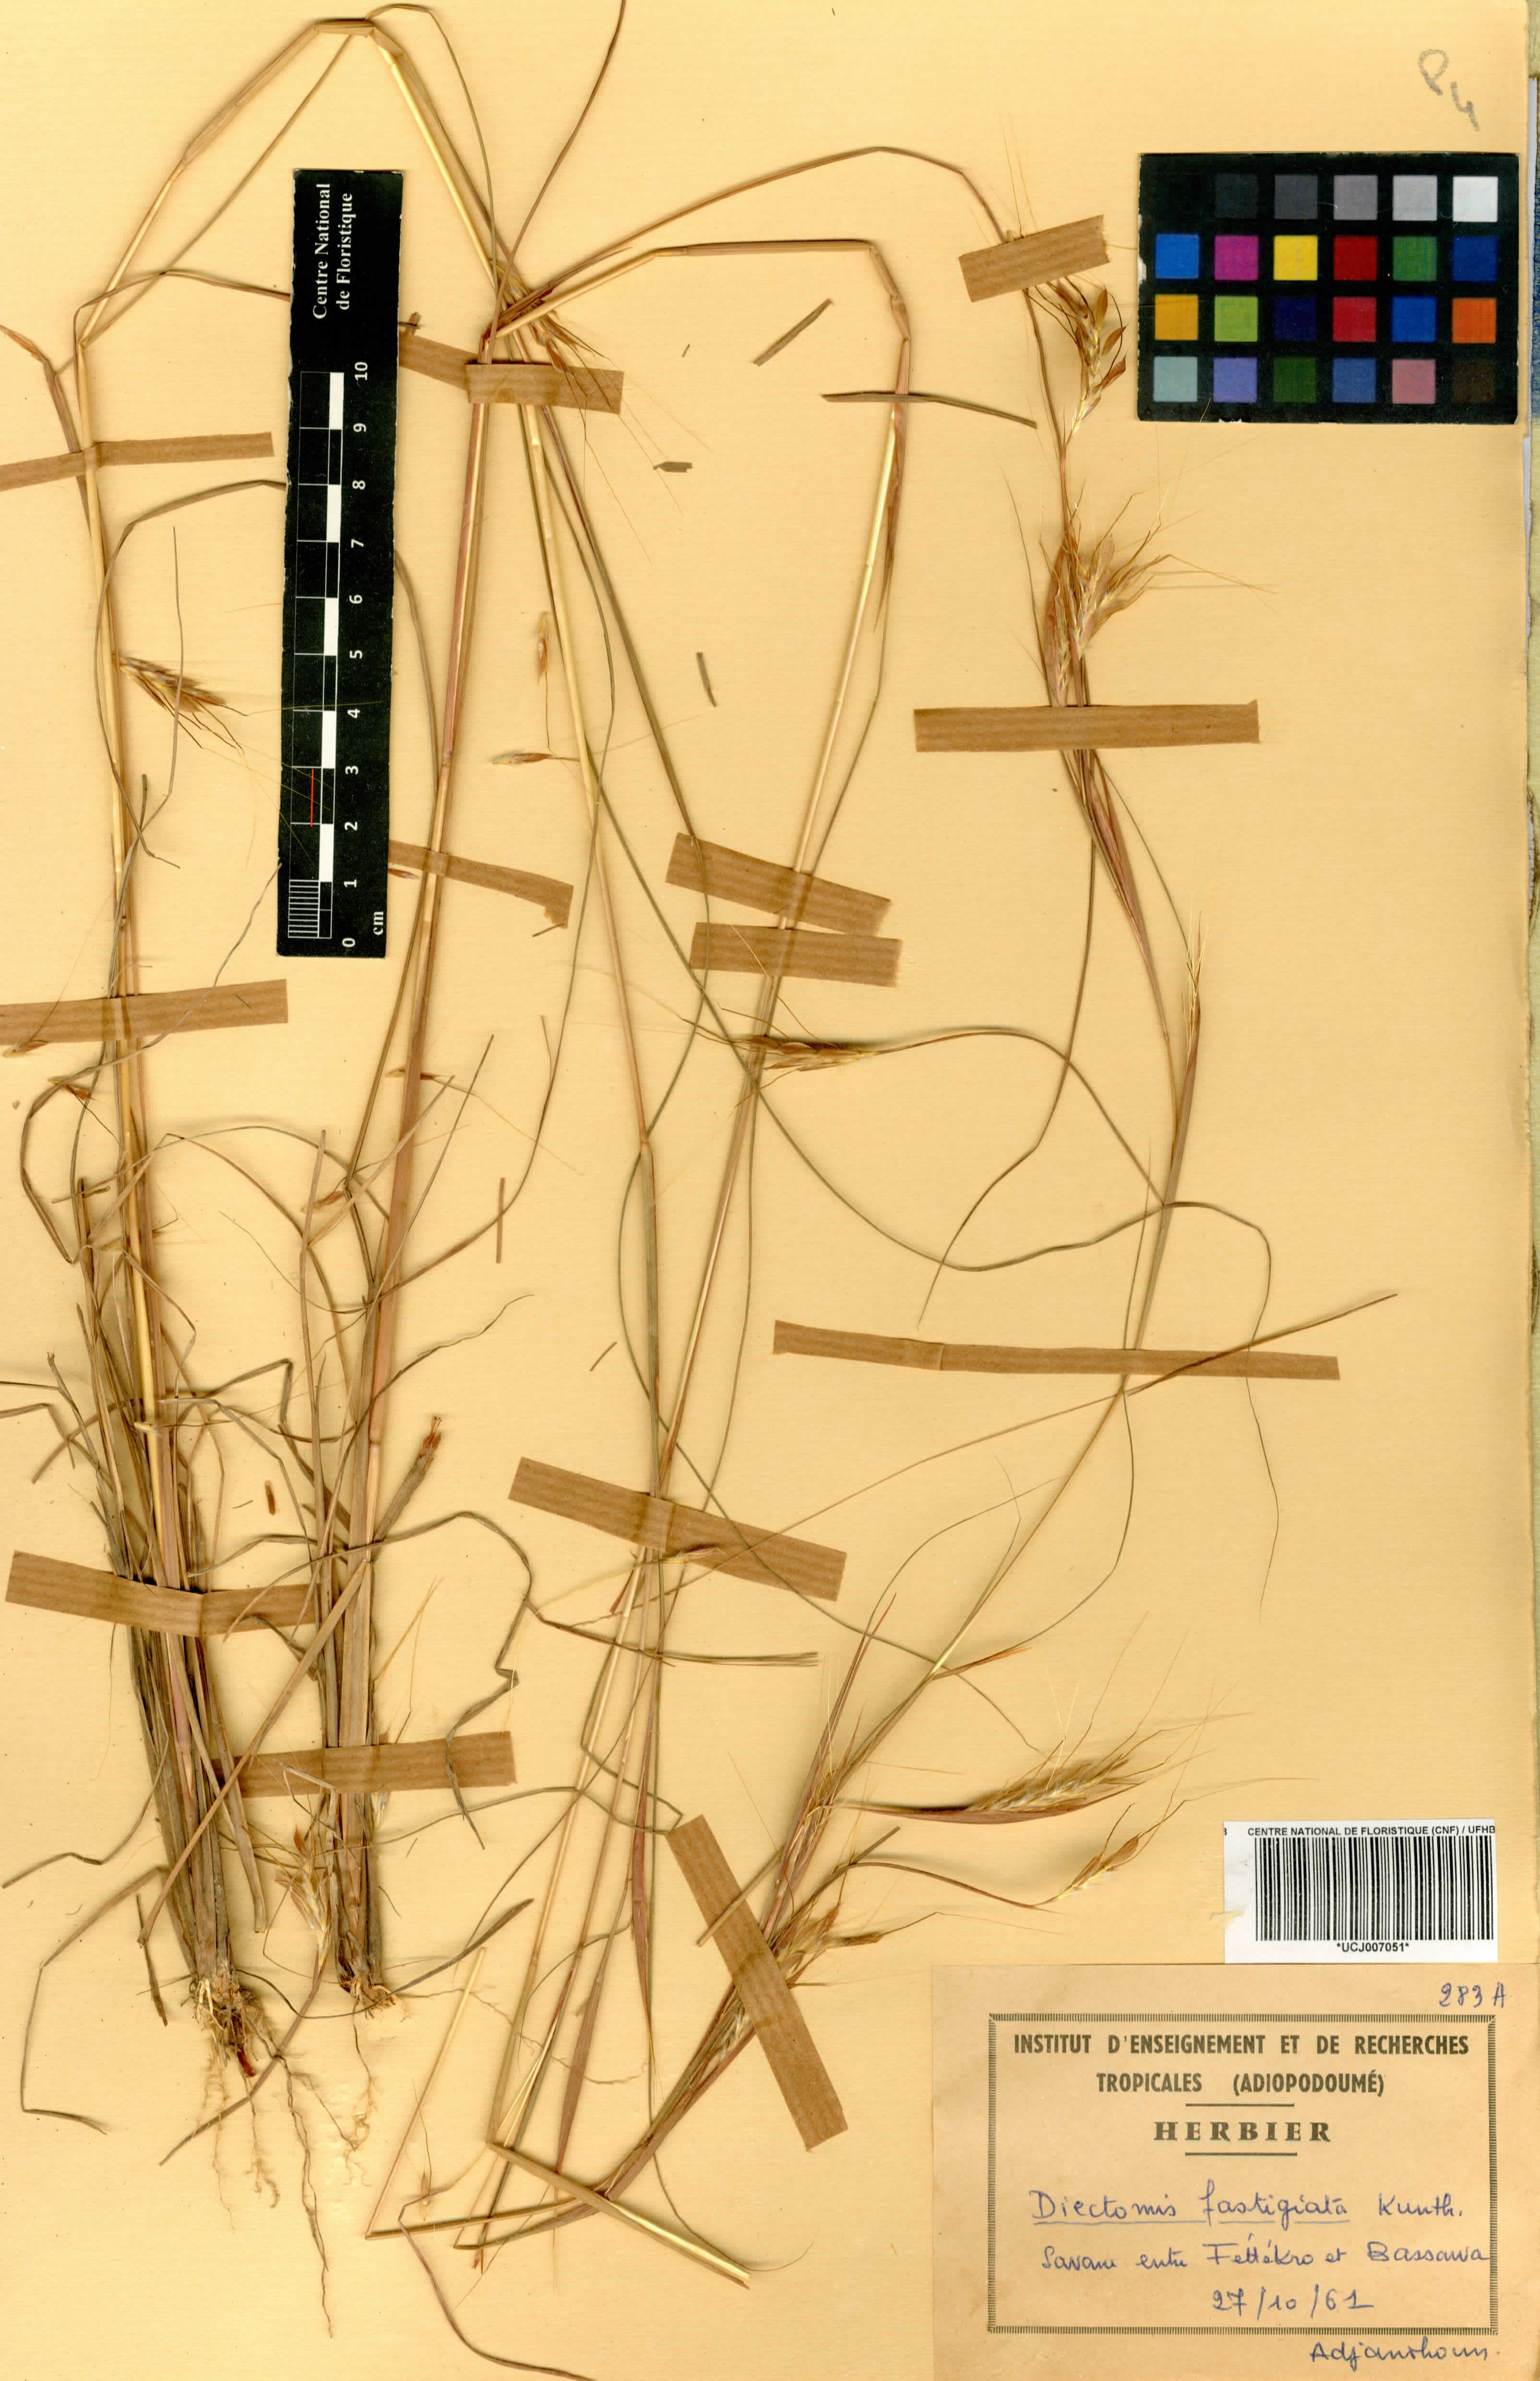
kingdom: Plantae
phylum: Tracheophyta
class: Liliopsida
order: Poales
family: Poaceae
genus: Diectomis
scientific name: Diectomis fastigiata
